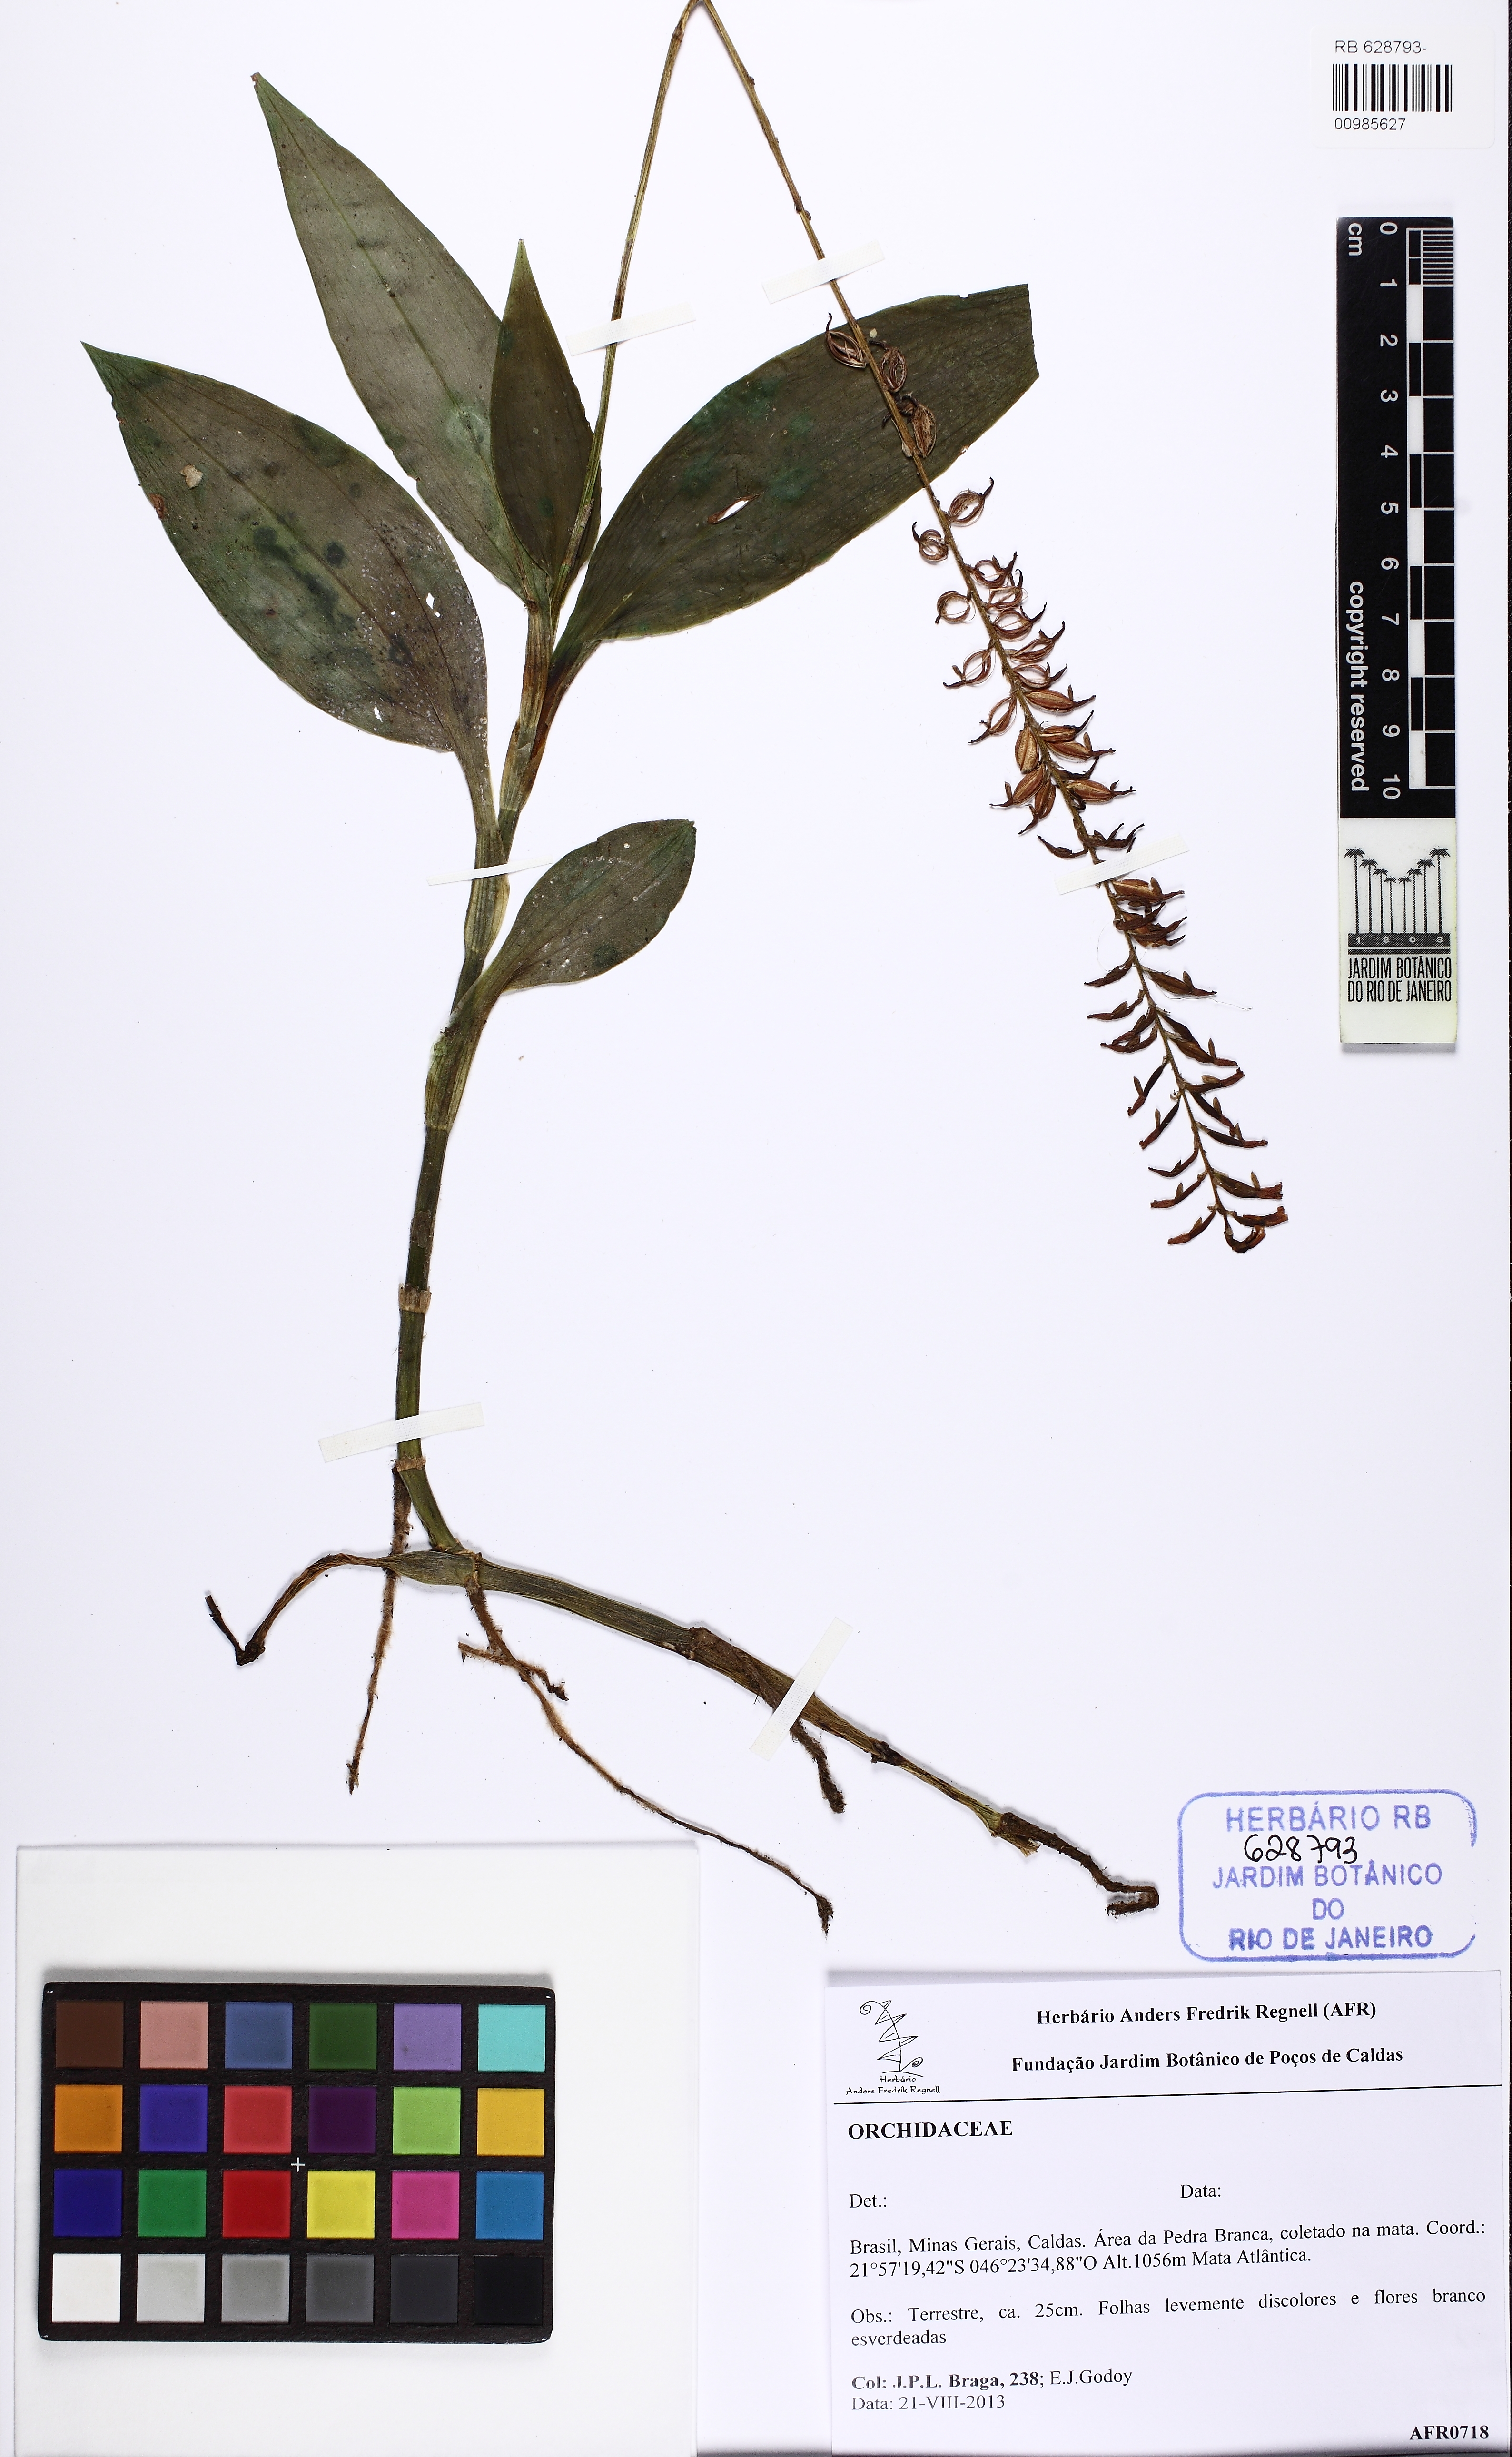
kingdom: Plantae
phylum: Tracheophyta
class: Liliopsida
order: Asparagales
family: Orchidaceae
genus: Aspidogyne
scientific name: Aspidogyne
